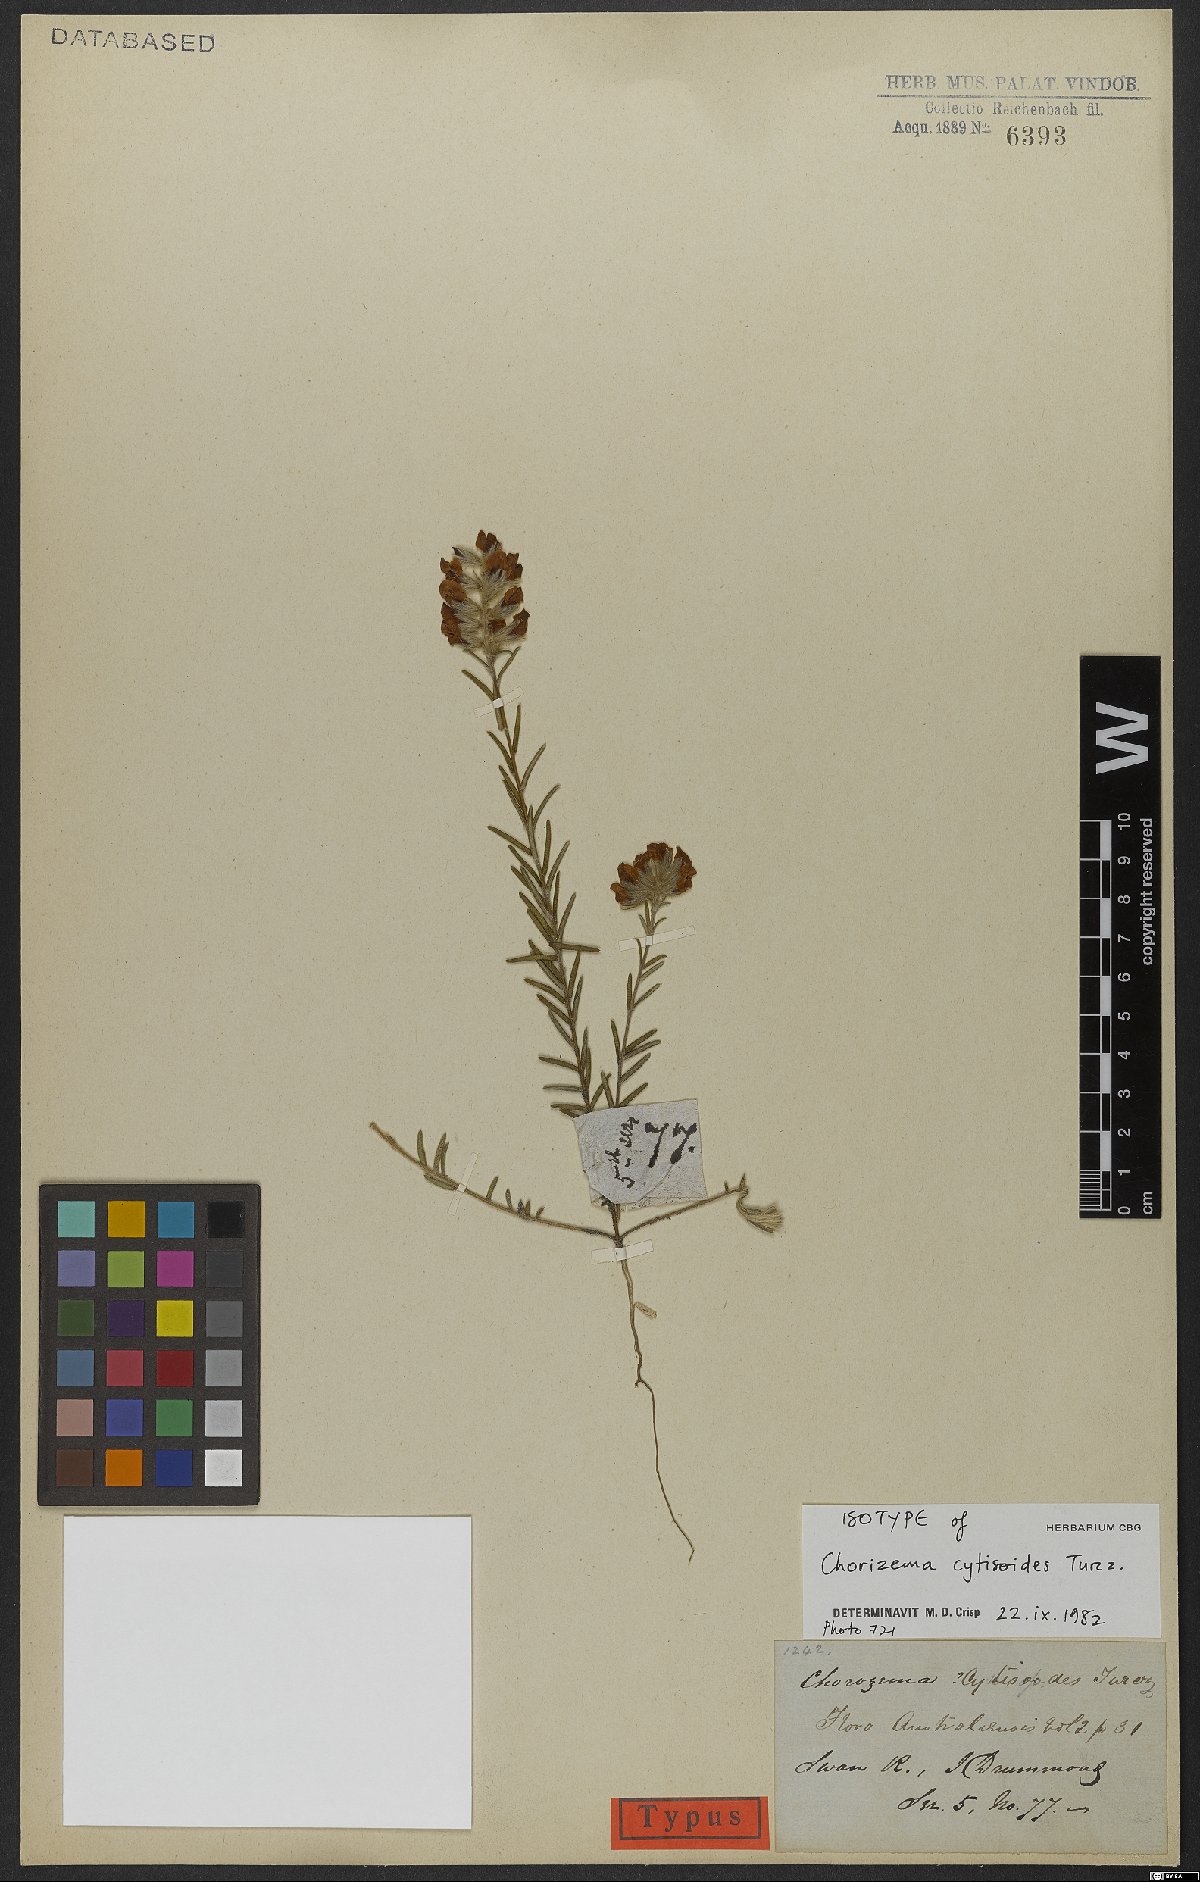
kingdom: Plantae
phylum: Tracheophyta
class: Magnoliopsida
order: Fabales
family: Fabaceae
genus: Chorizema
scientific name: Chorizema cytisoides
